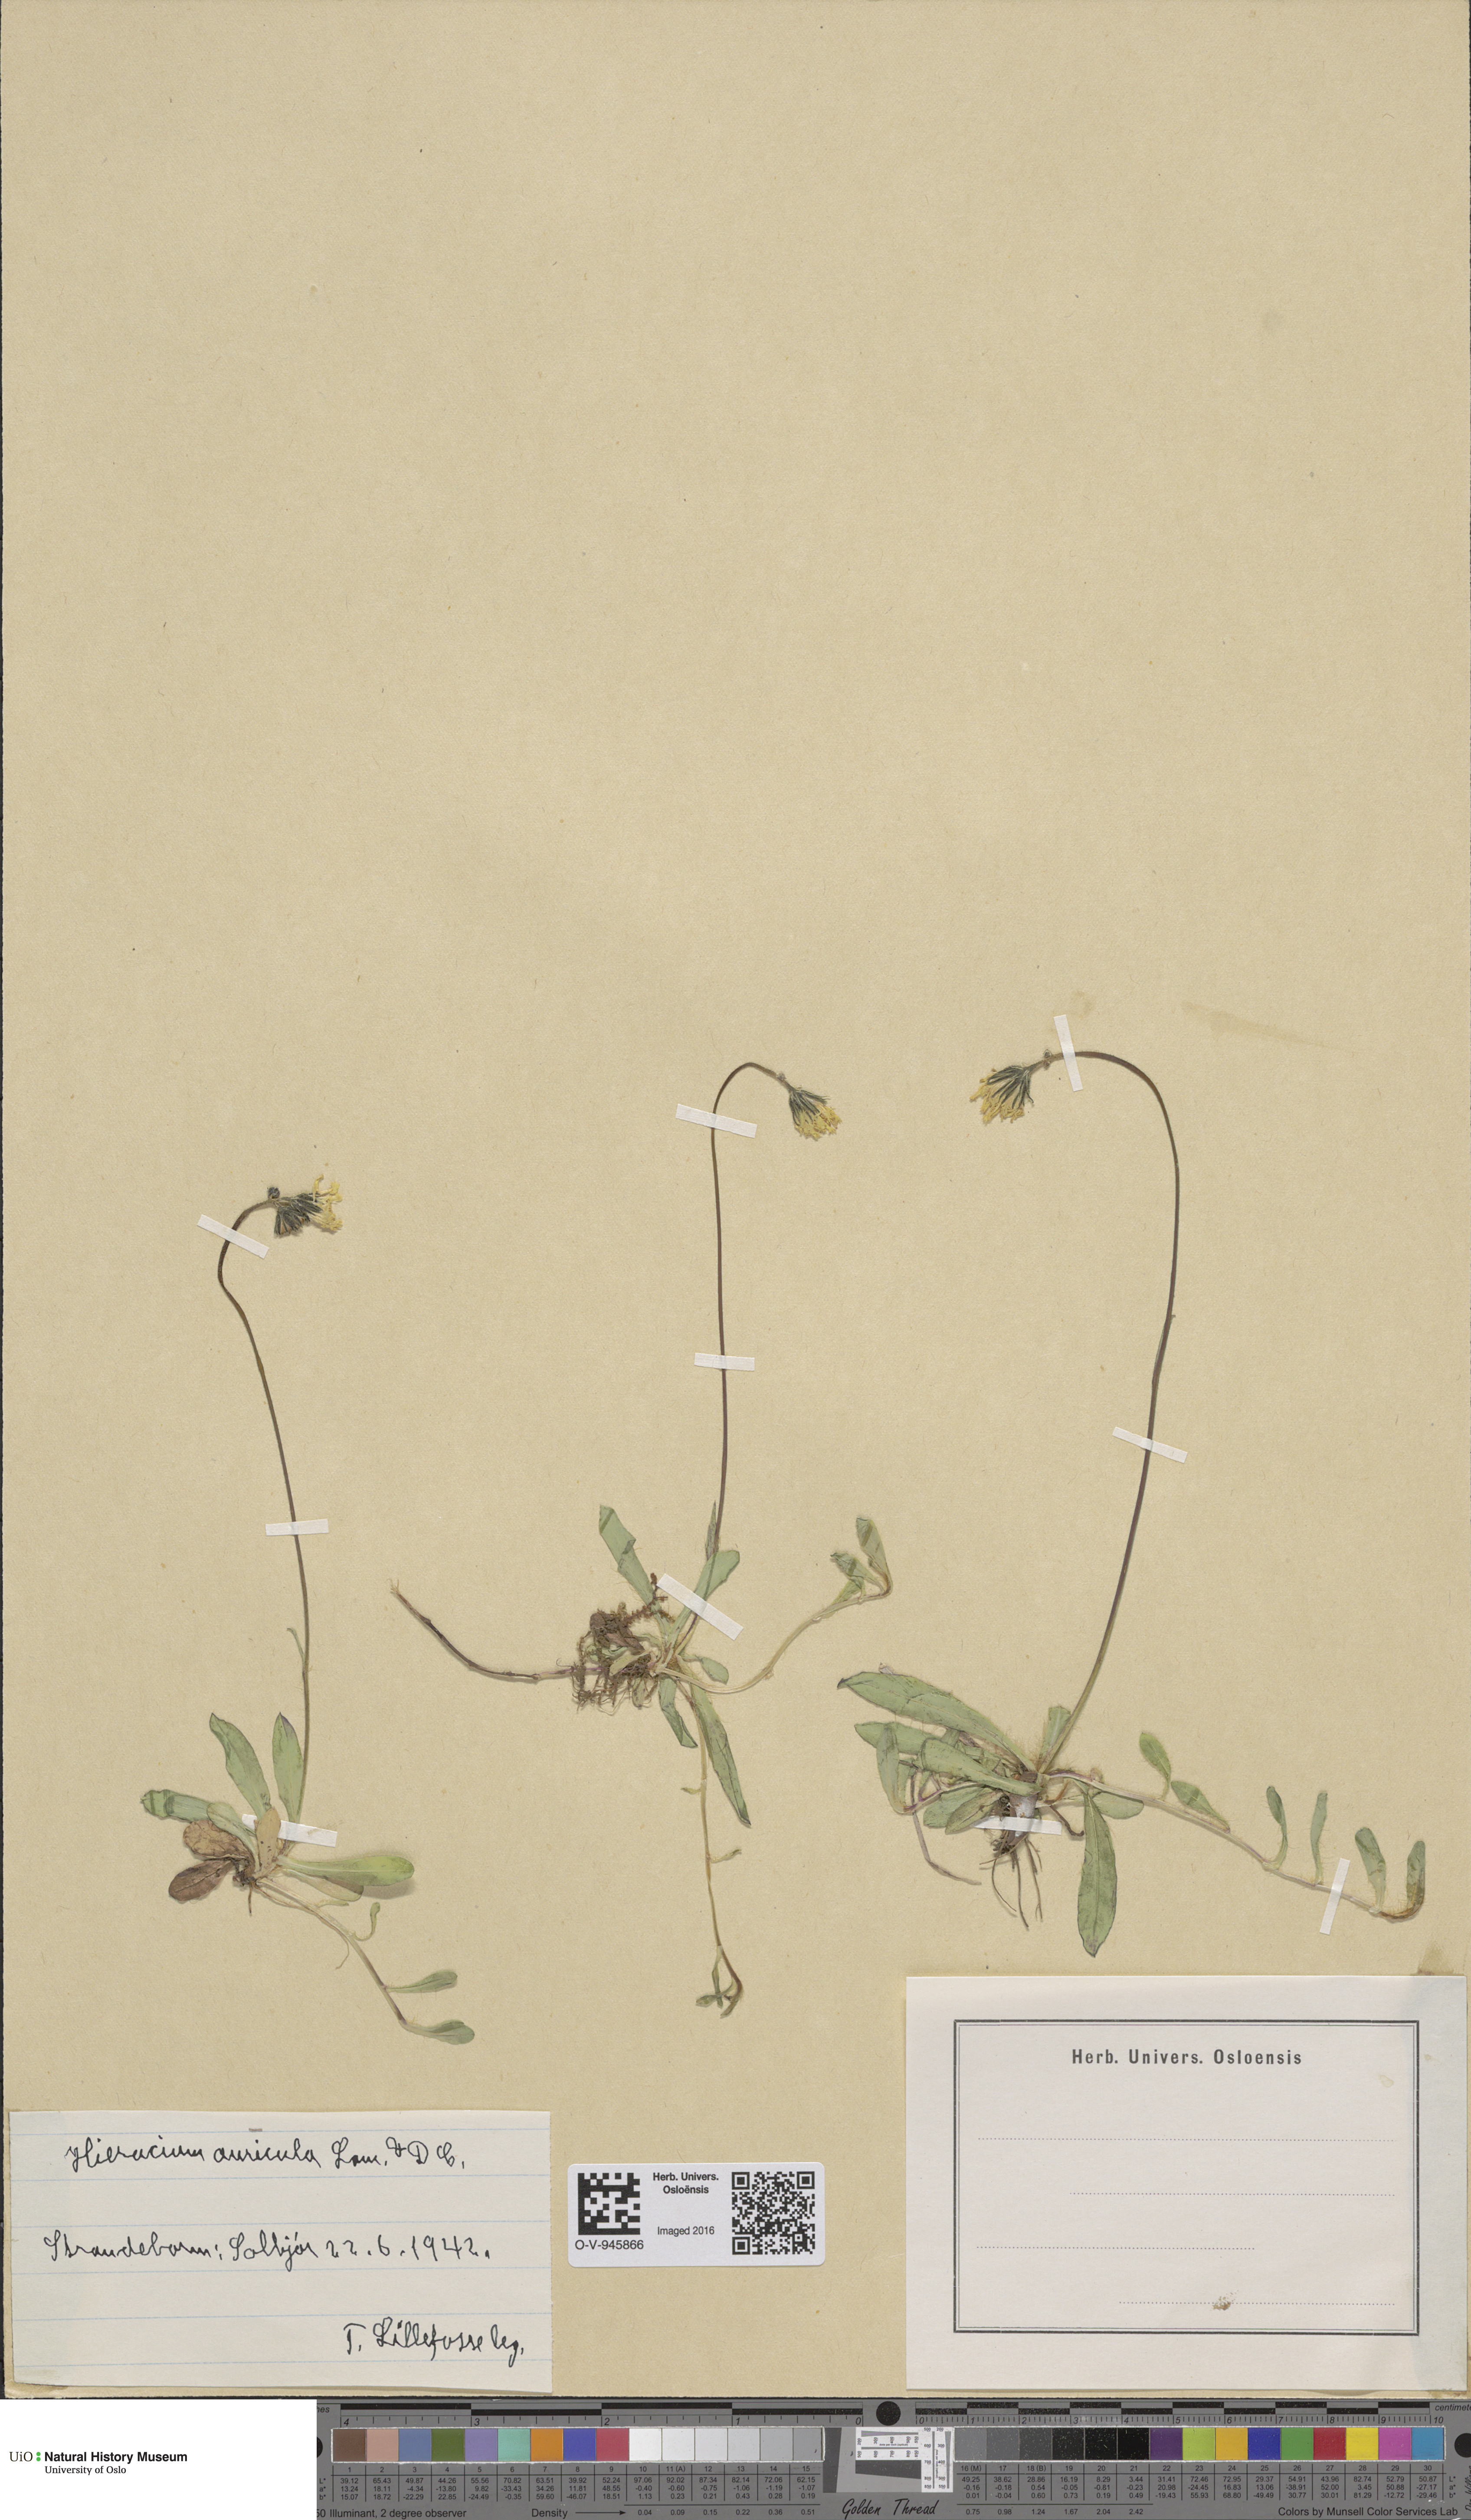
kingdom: Plantae
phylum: Tracheophyta
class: Magnoliopsida
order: Asterales
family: Asteraceae
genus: Pilosella
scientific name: Pilosella lactucella
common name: Glaucous fox-and-cubs
